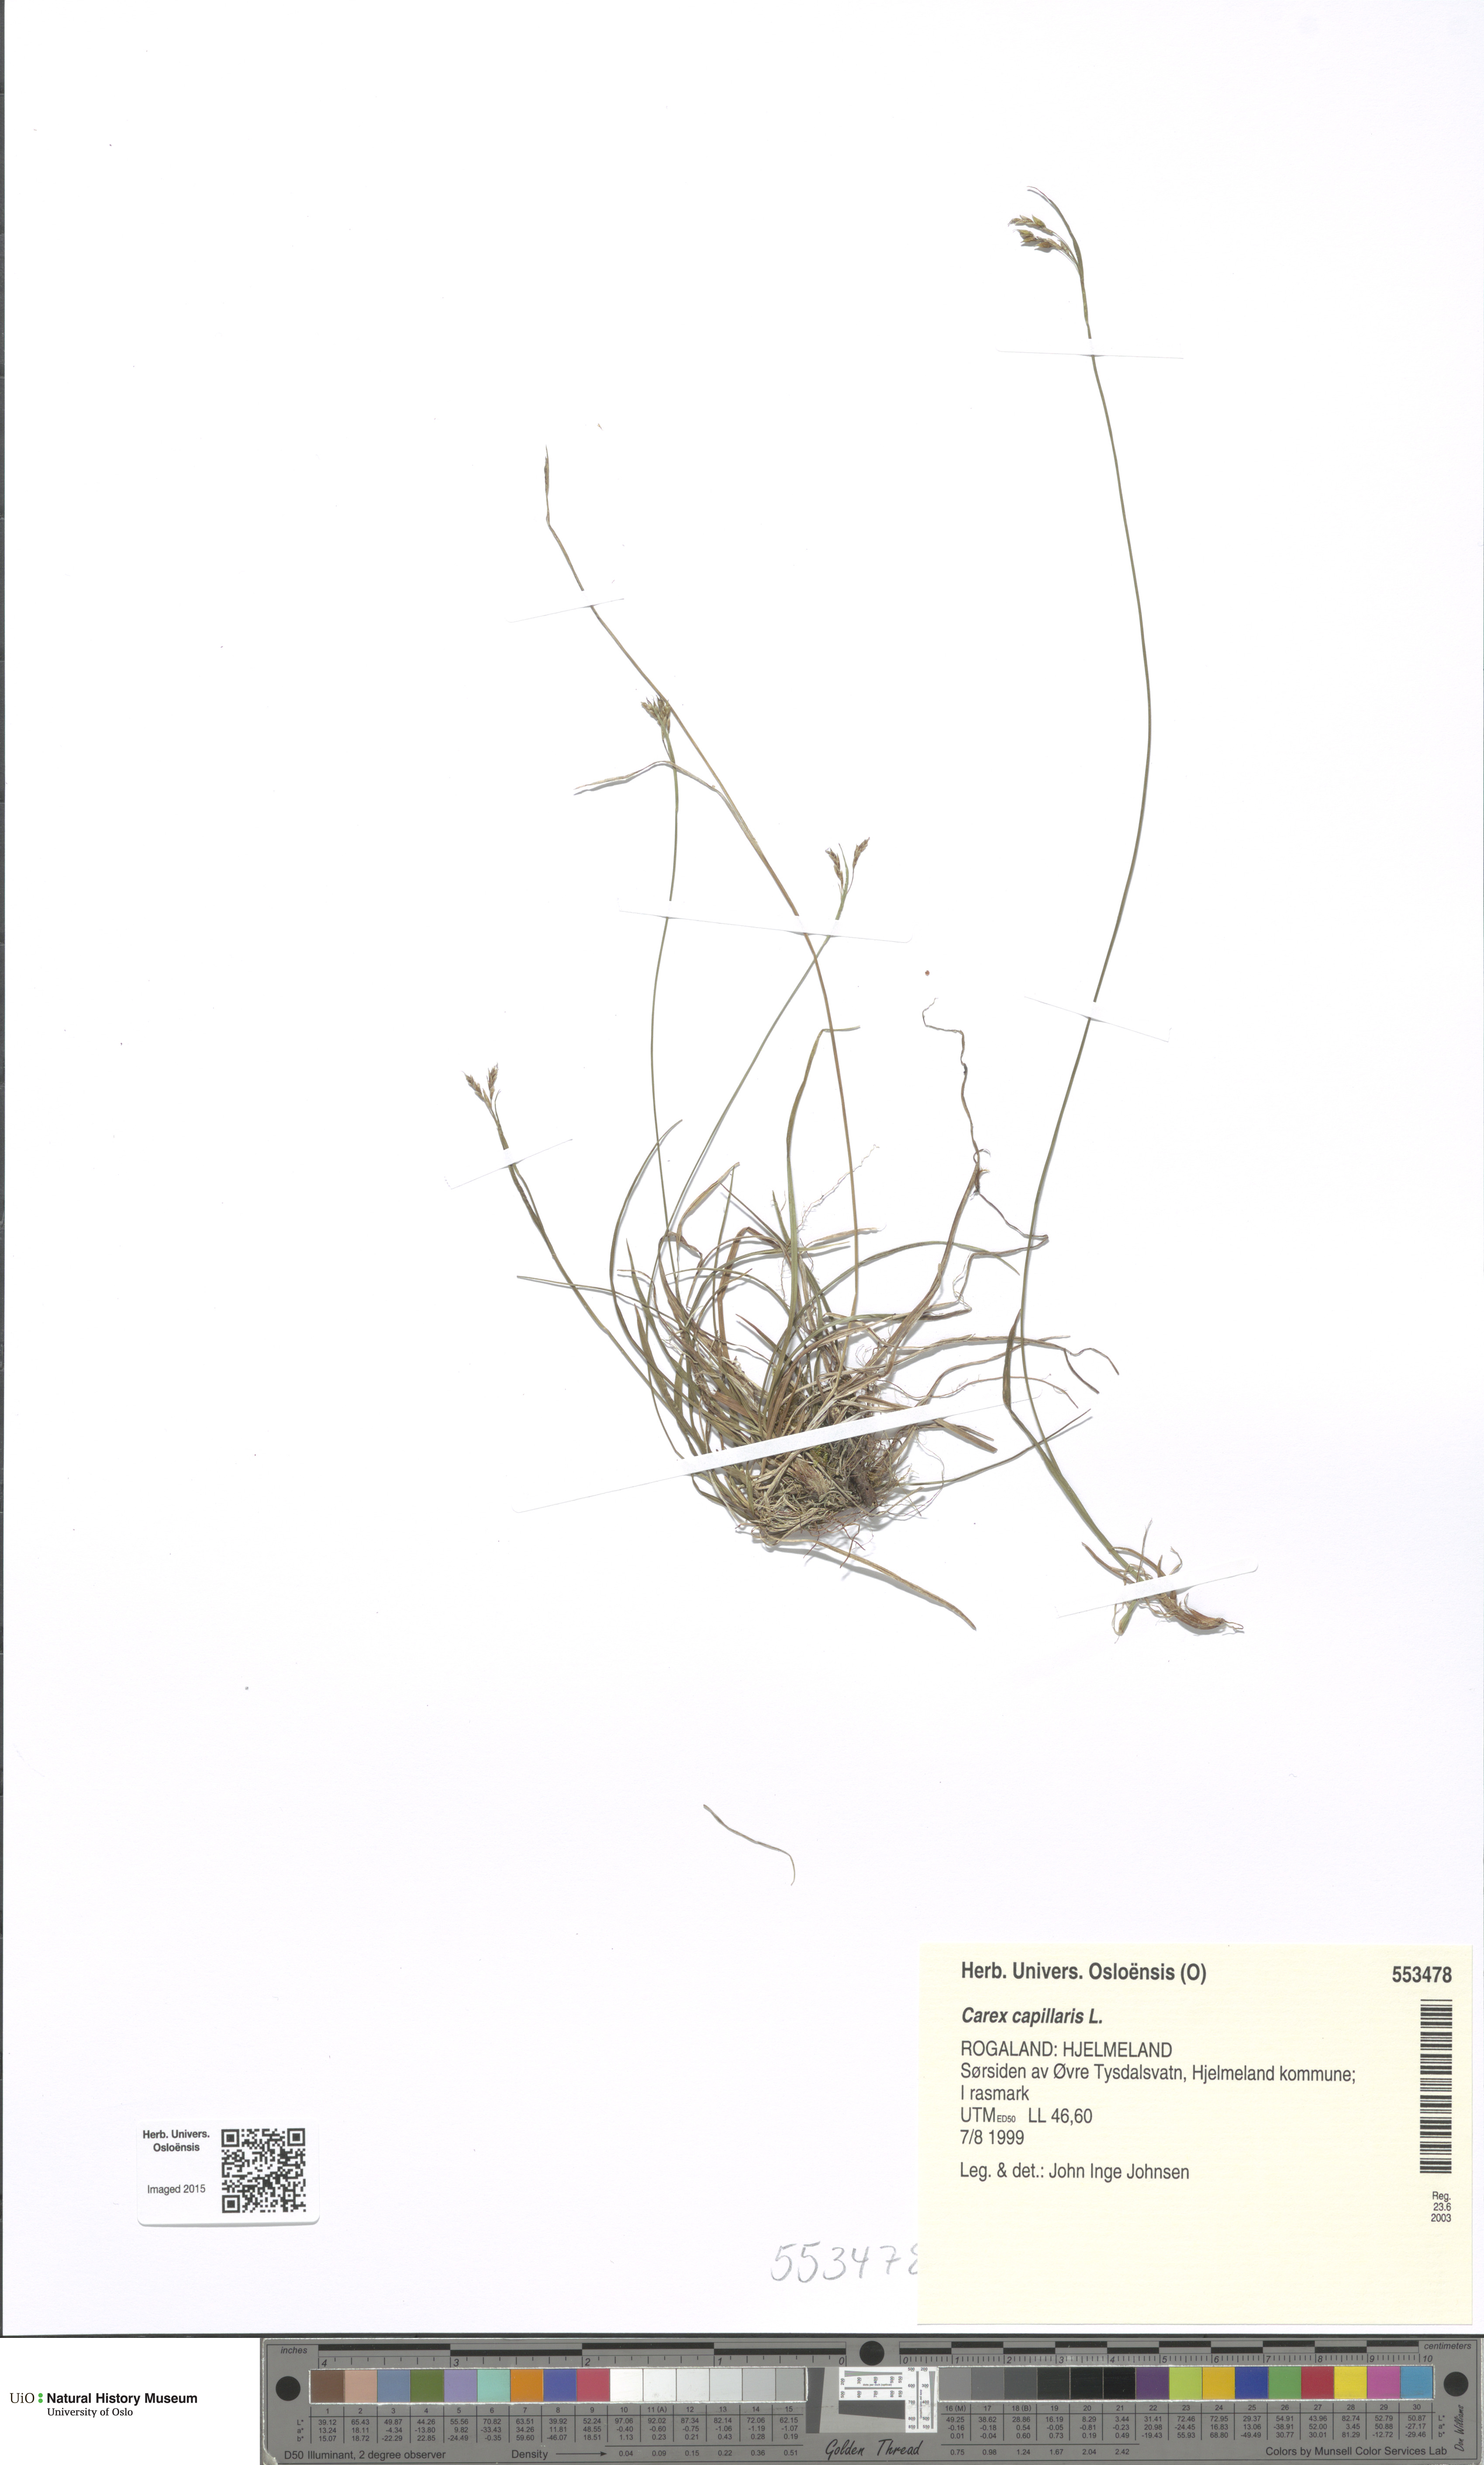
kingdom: Plantae
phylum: Tracheophyta
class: Liliopsida
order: Poales
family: Cyperaceae
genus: Carex
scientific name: Carex capillaris
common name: Hair sedge
